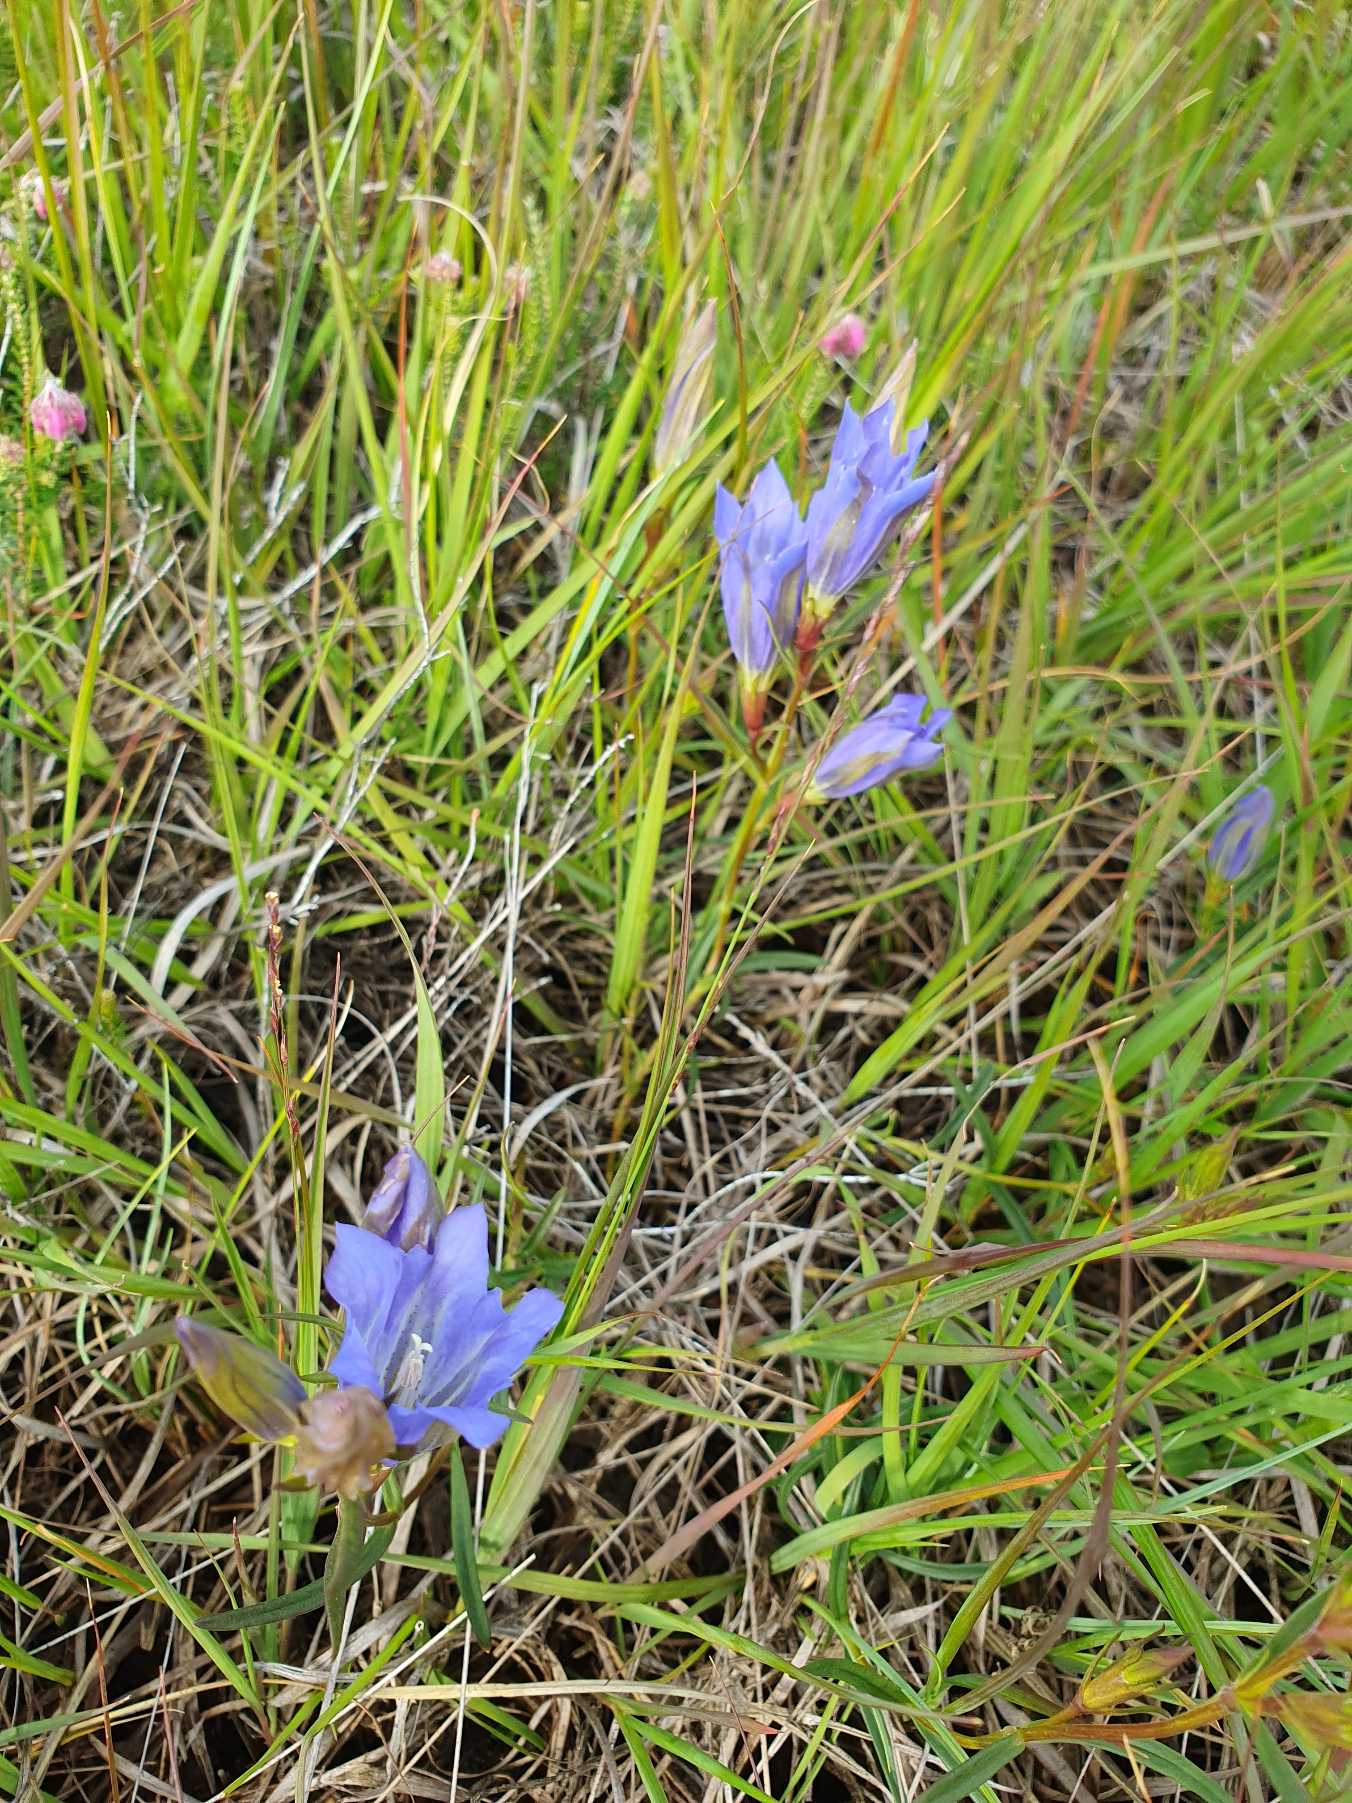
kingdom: Plantae
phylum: Tracheophyta
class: Magnoliopsida
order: Gentianales
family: Gentianaceae
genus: Gentiana
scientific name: Gentiana pneumonanthe
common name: Klokke-ensian
